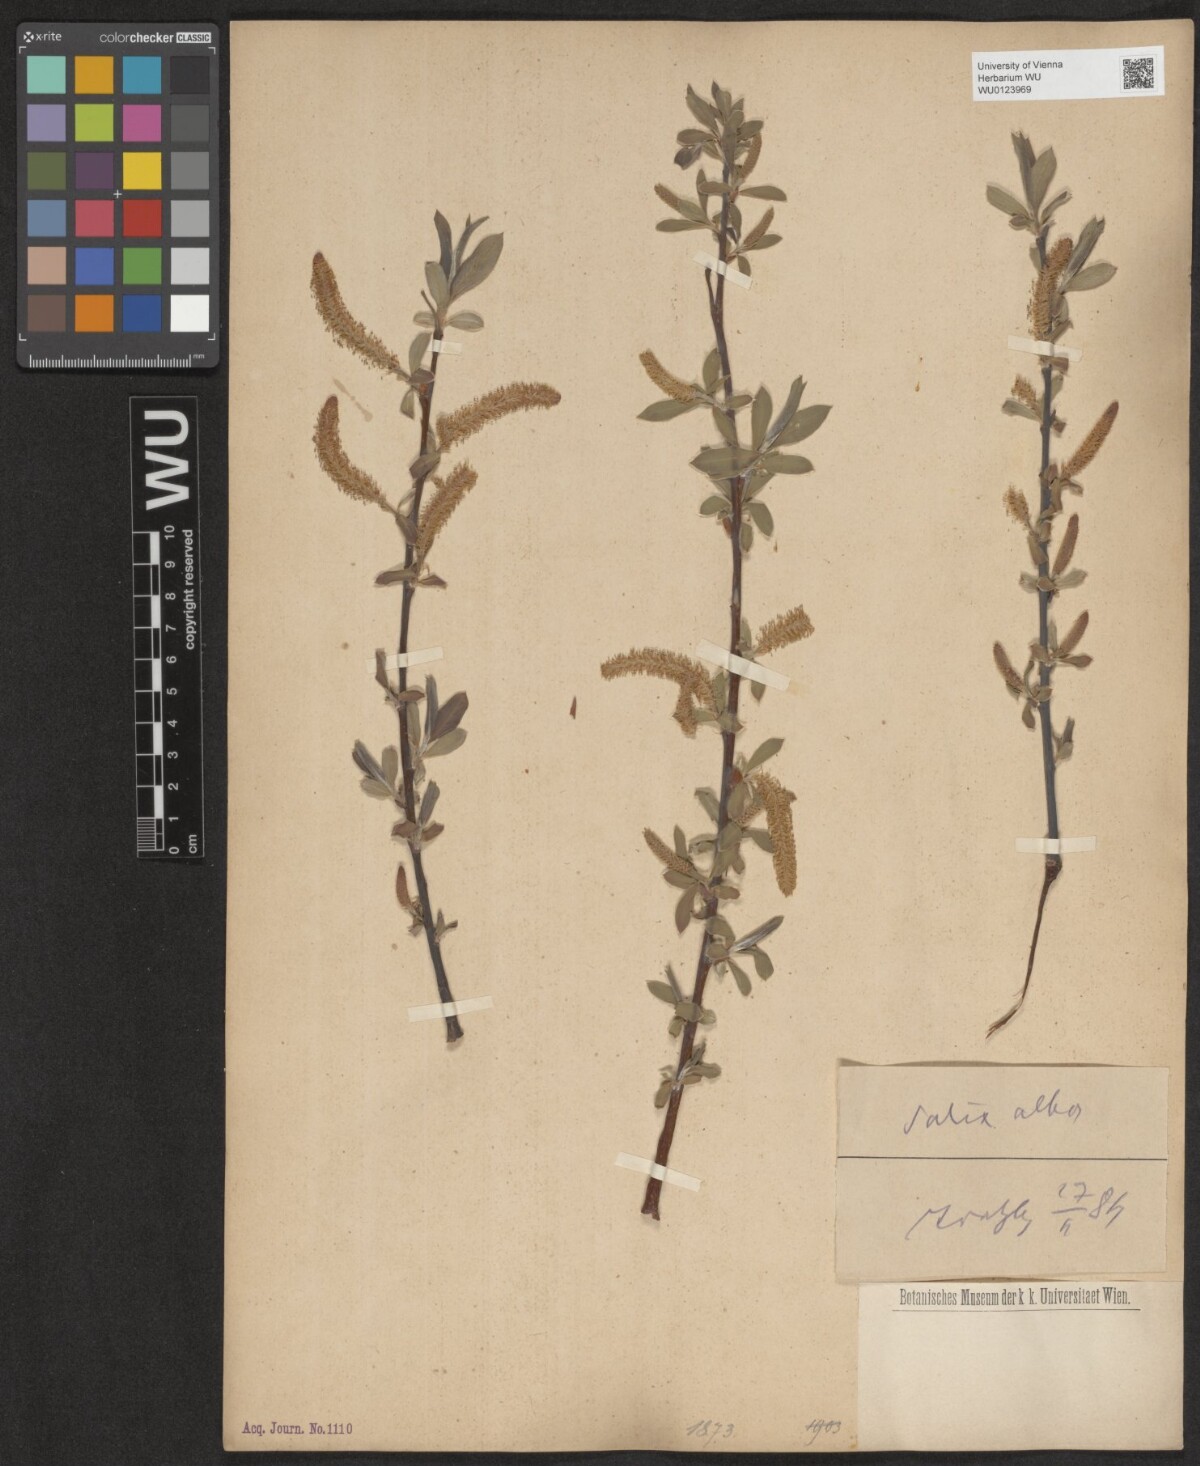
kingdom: Plantae
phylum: Tracheophyta
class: Magnoliopsida
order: Malpighiales
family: Salicaceae
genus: Salix
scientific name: Salix alba
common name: White willow
